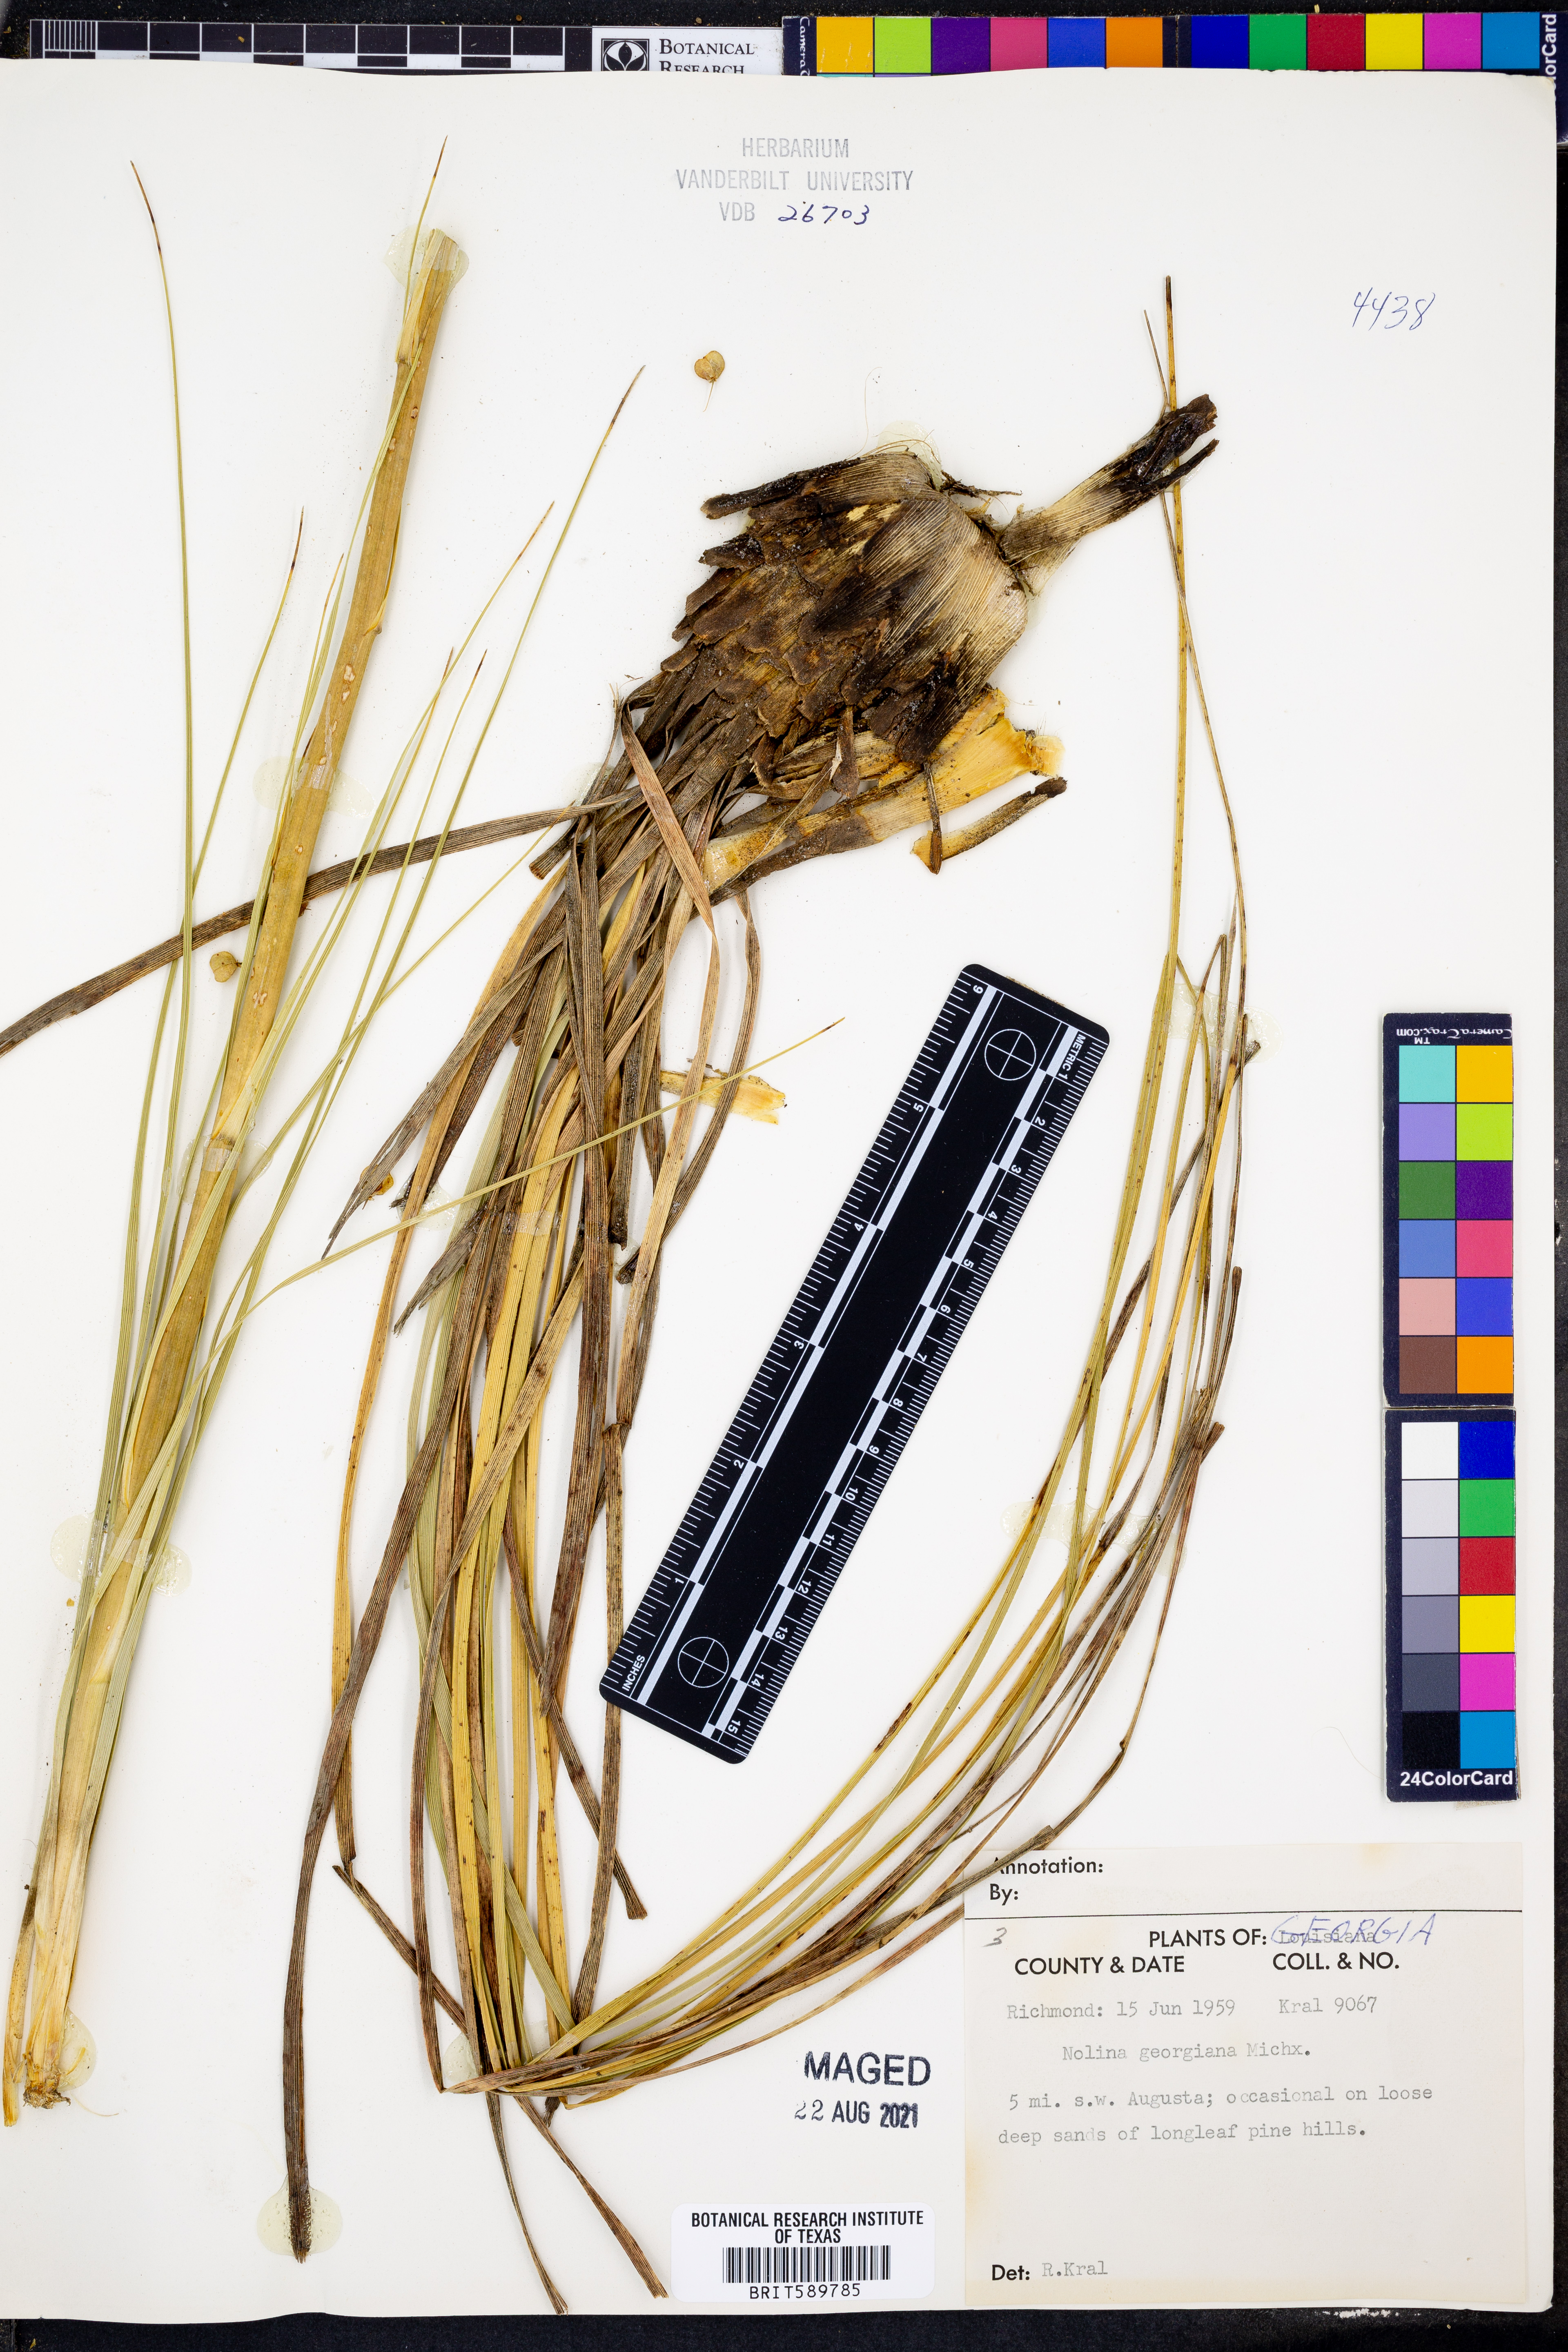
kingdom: Plantae
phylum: Tracheophyta
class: Liliopsida
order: Asparagales
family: Asparagaceae
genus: Nolina
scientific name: Nolina georgiana
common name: Georgia bear-grass
